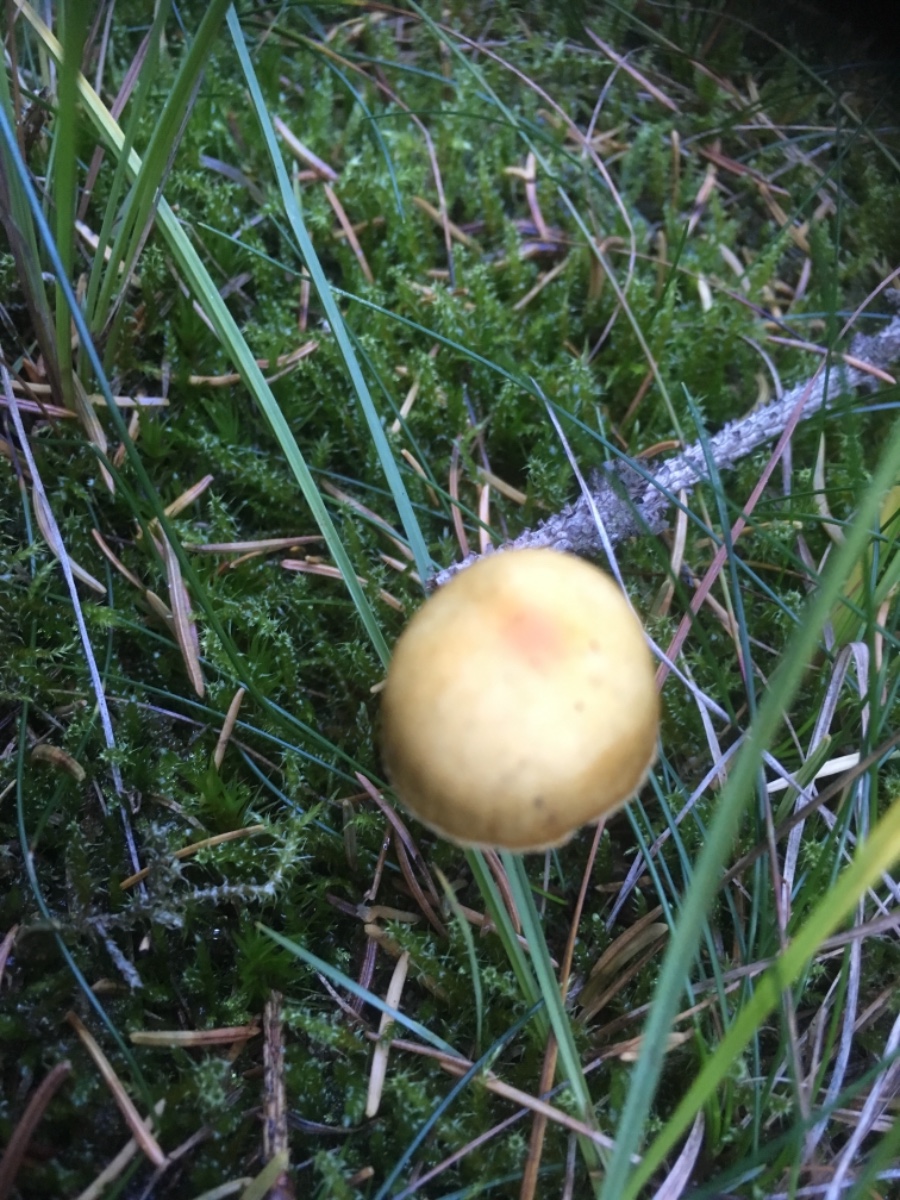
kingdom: Fungi
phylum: Basidiomycota
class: Agaricomycetes
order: Agaricales
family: Hymenogastraceae
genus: Galerina
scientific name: Galerina
